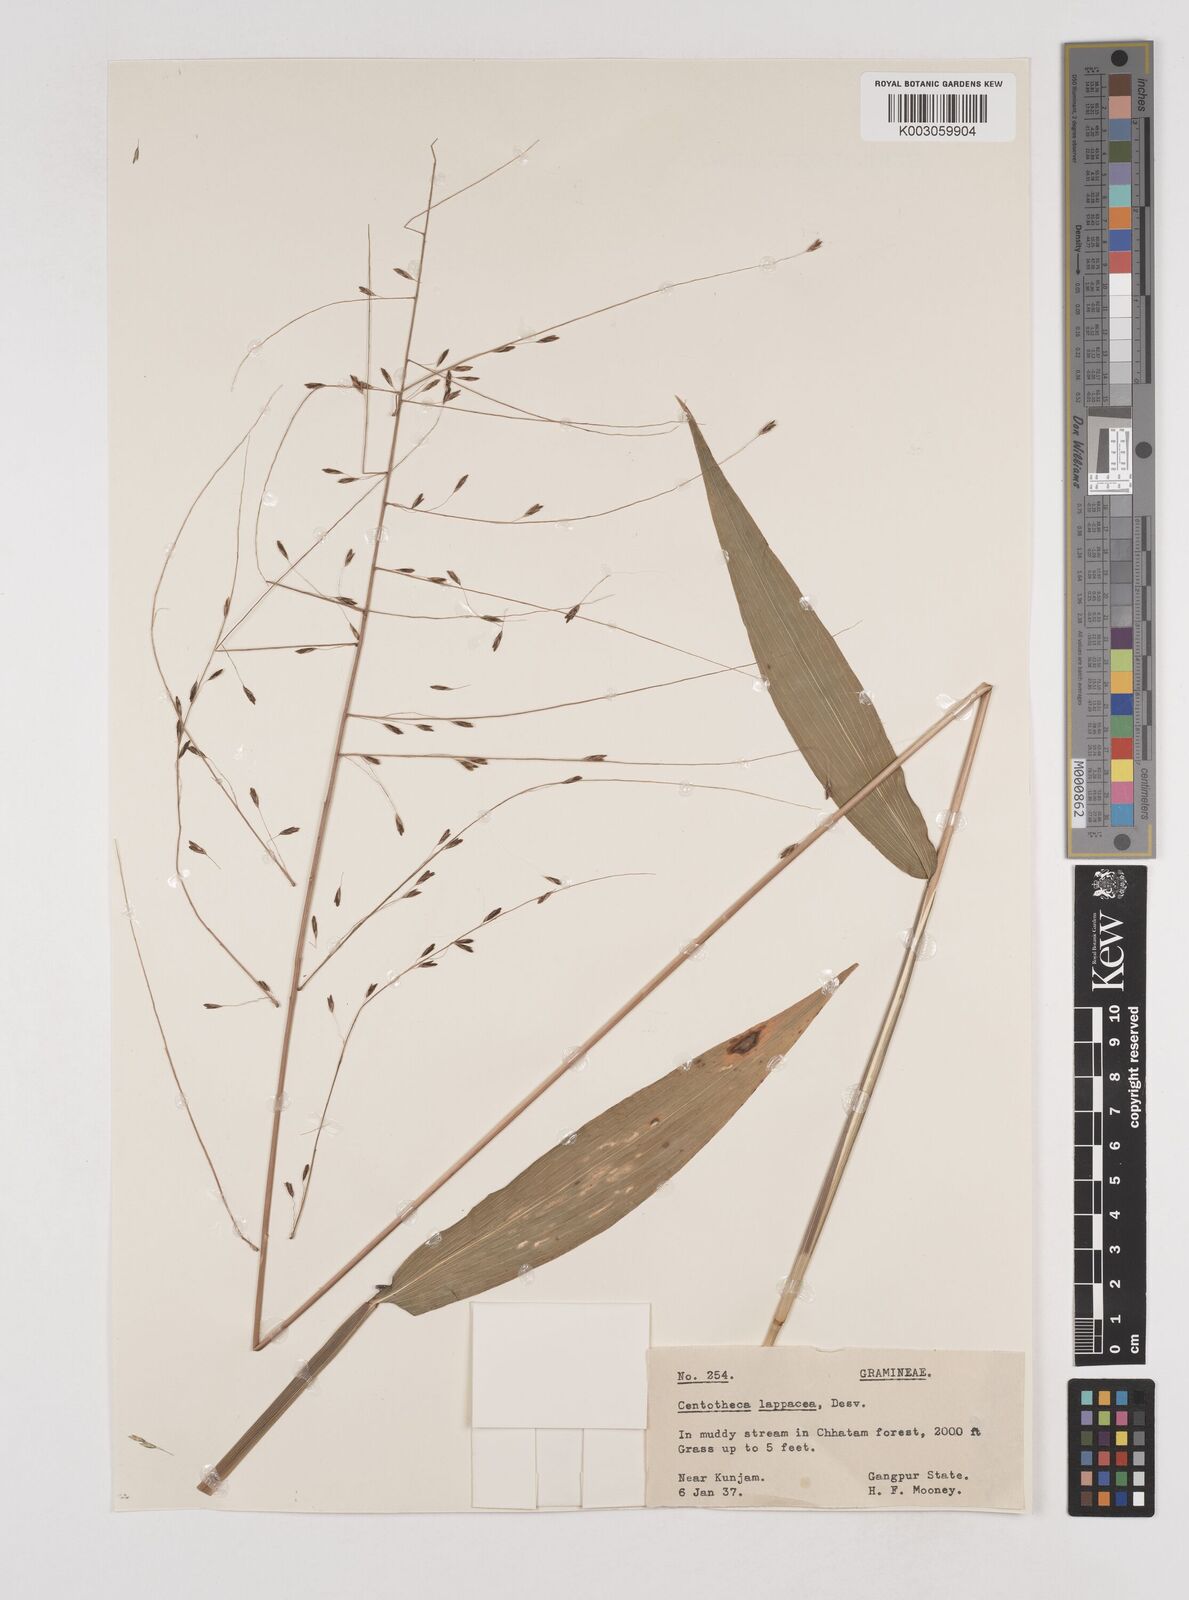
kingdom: Plantae
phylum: Tracheophyta
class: Liliopsida
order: Poales
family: Poaceae
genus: Centotheca
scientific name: Centotheca lappacea
